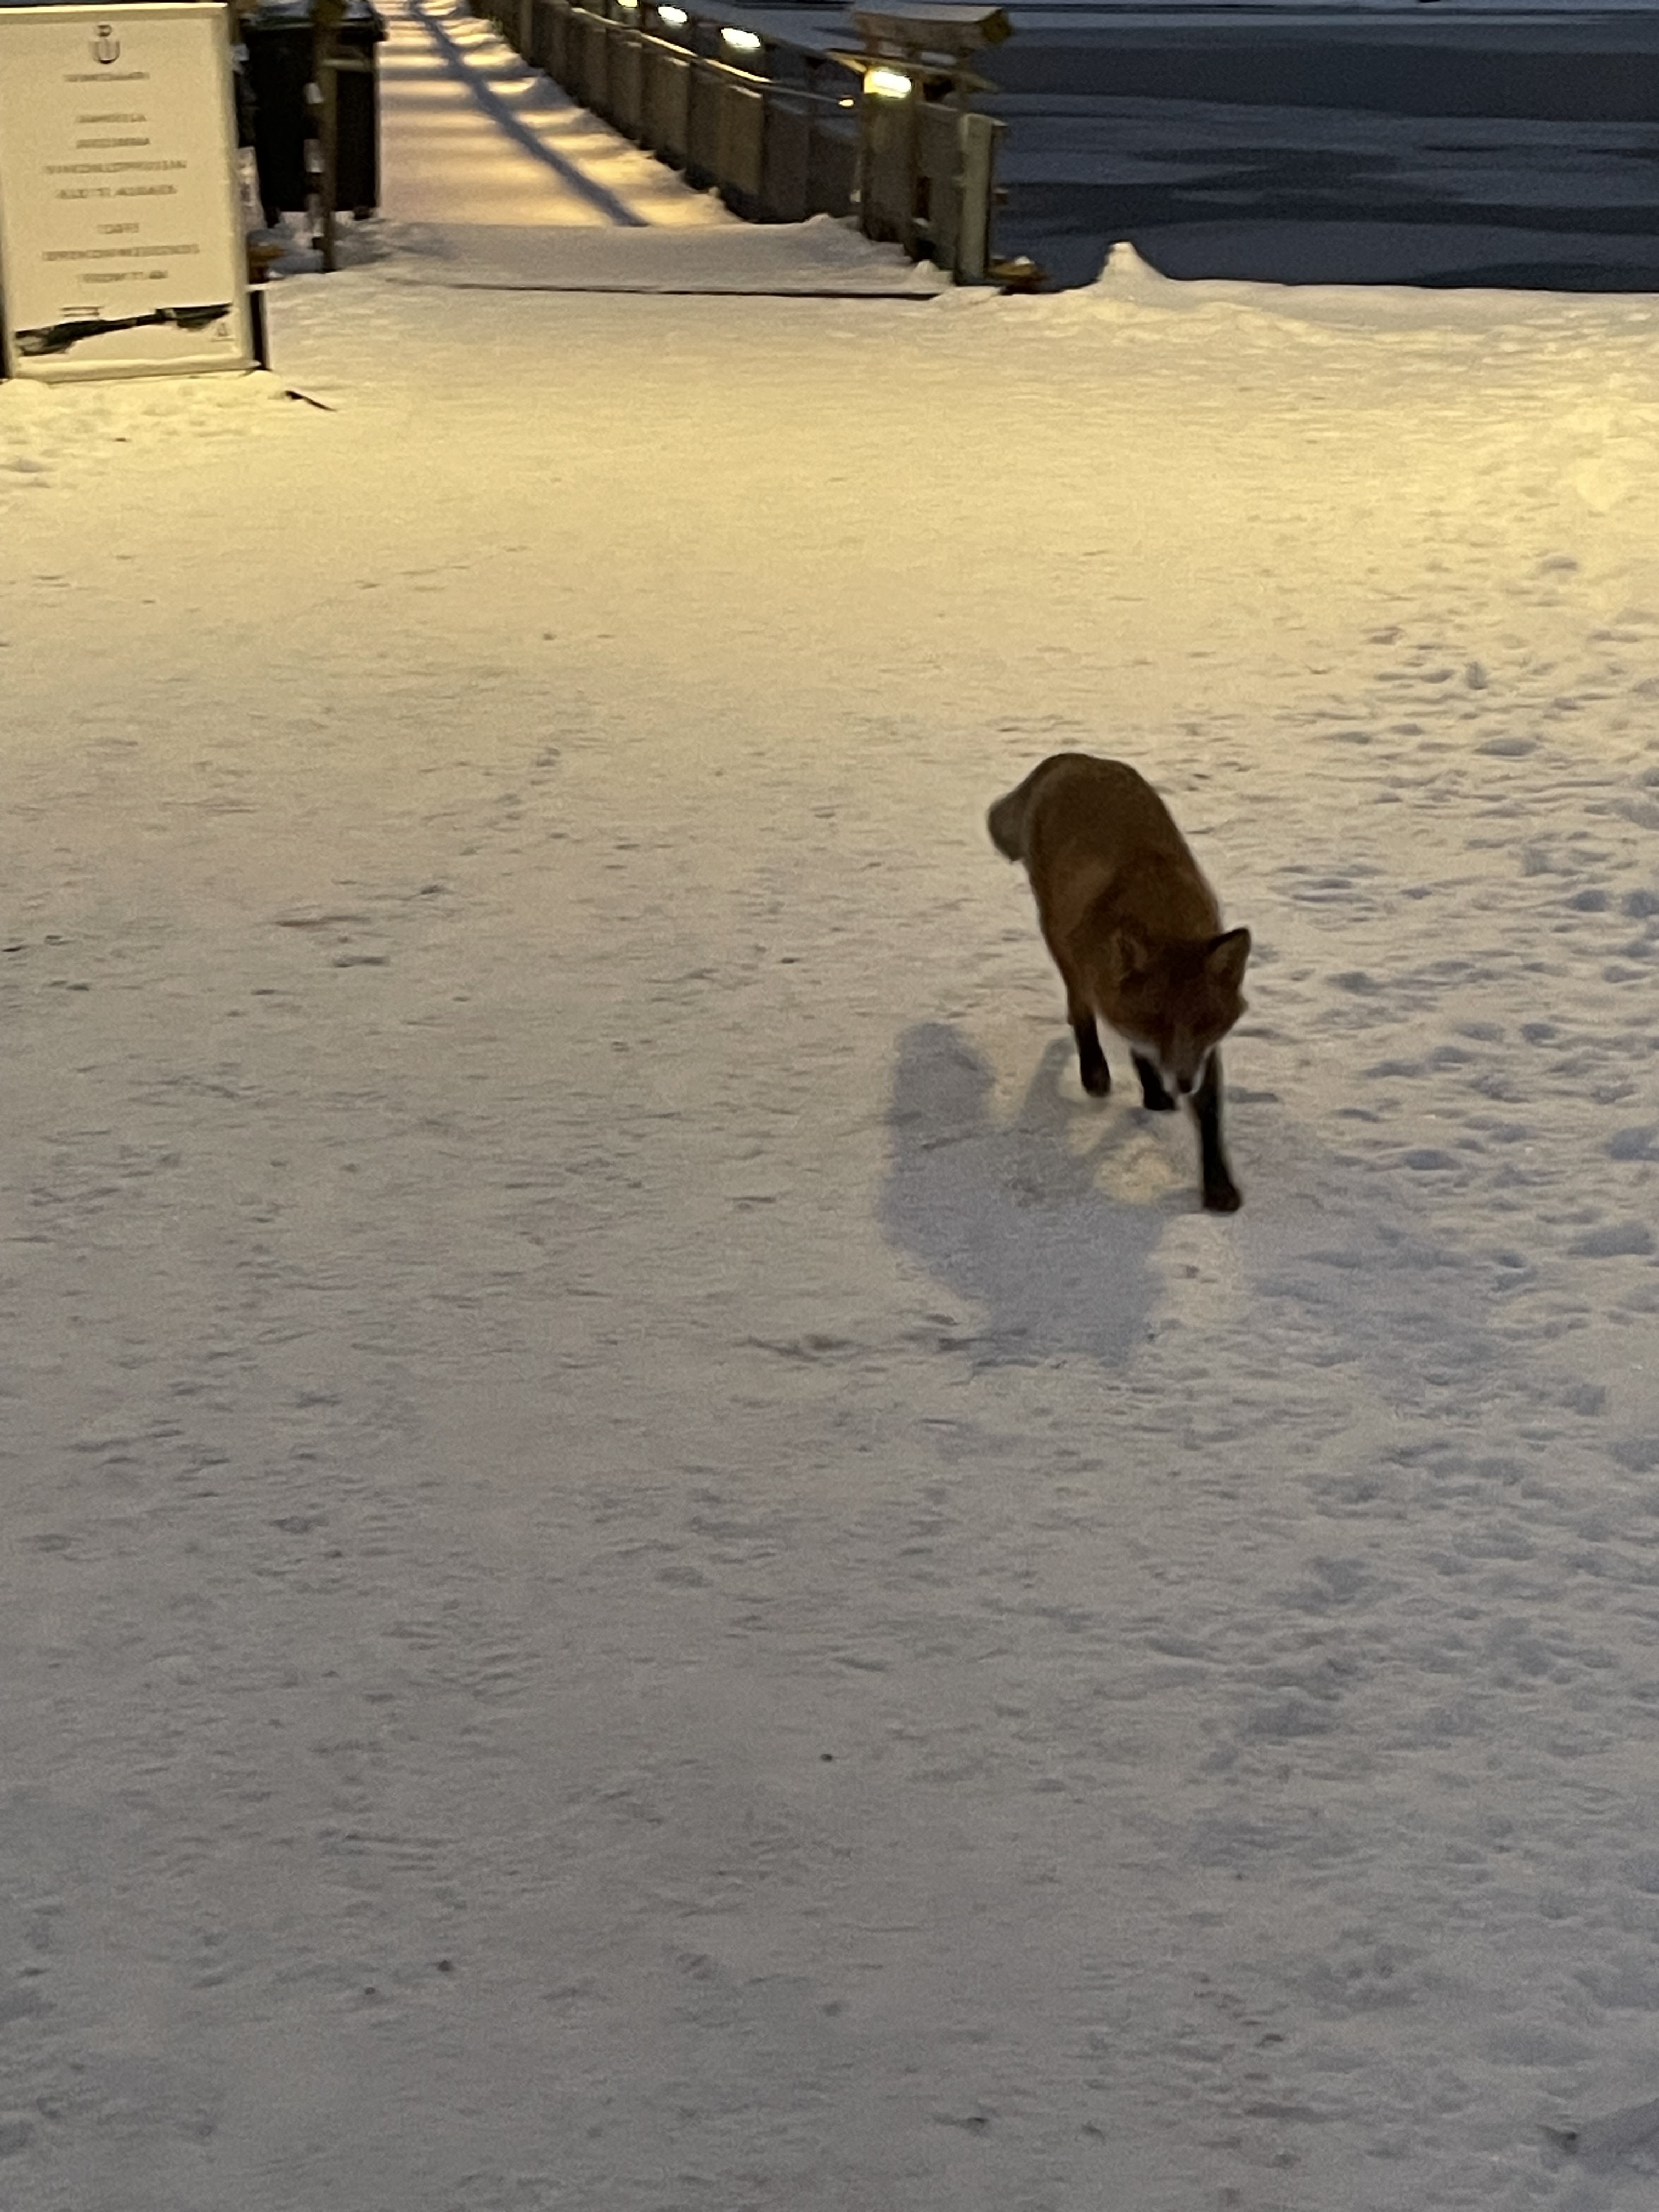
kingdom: Animalia
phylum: Chordata
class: Mammalia
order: Carnivora
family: Canidae
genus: Vulpes
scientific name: Vulpes vulpes
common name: Red fox
